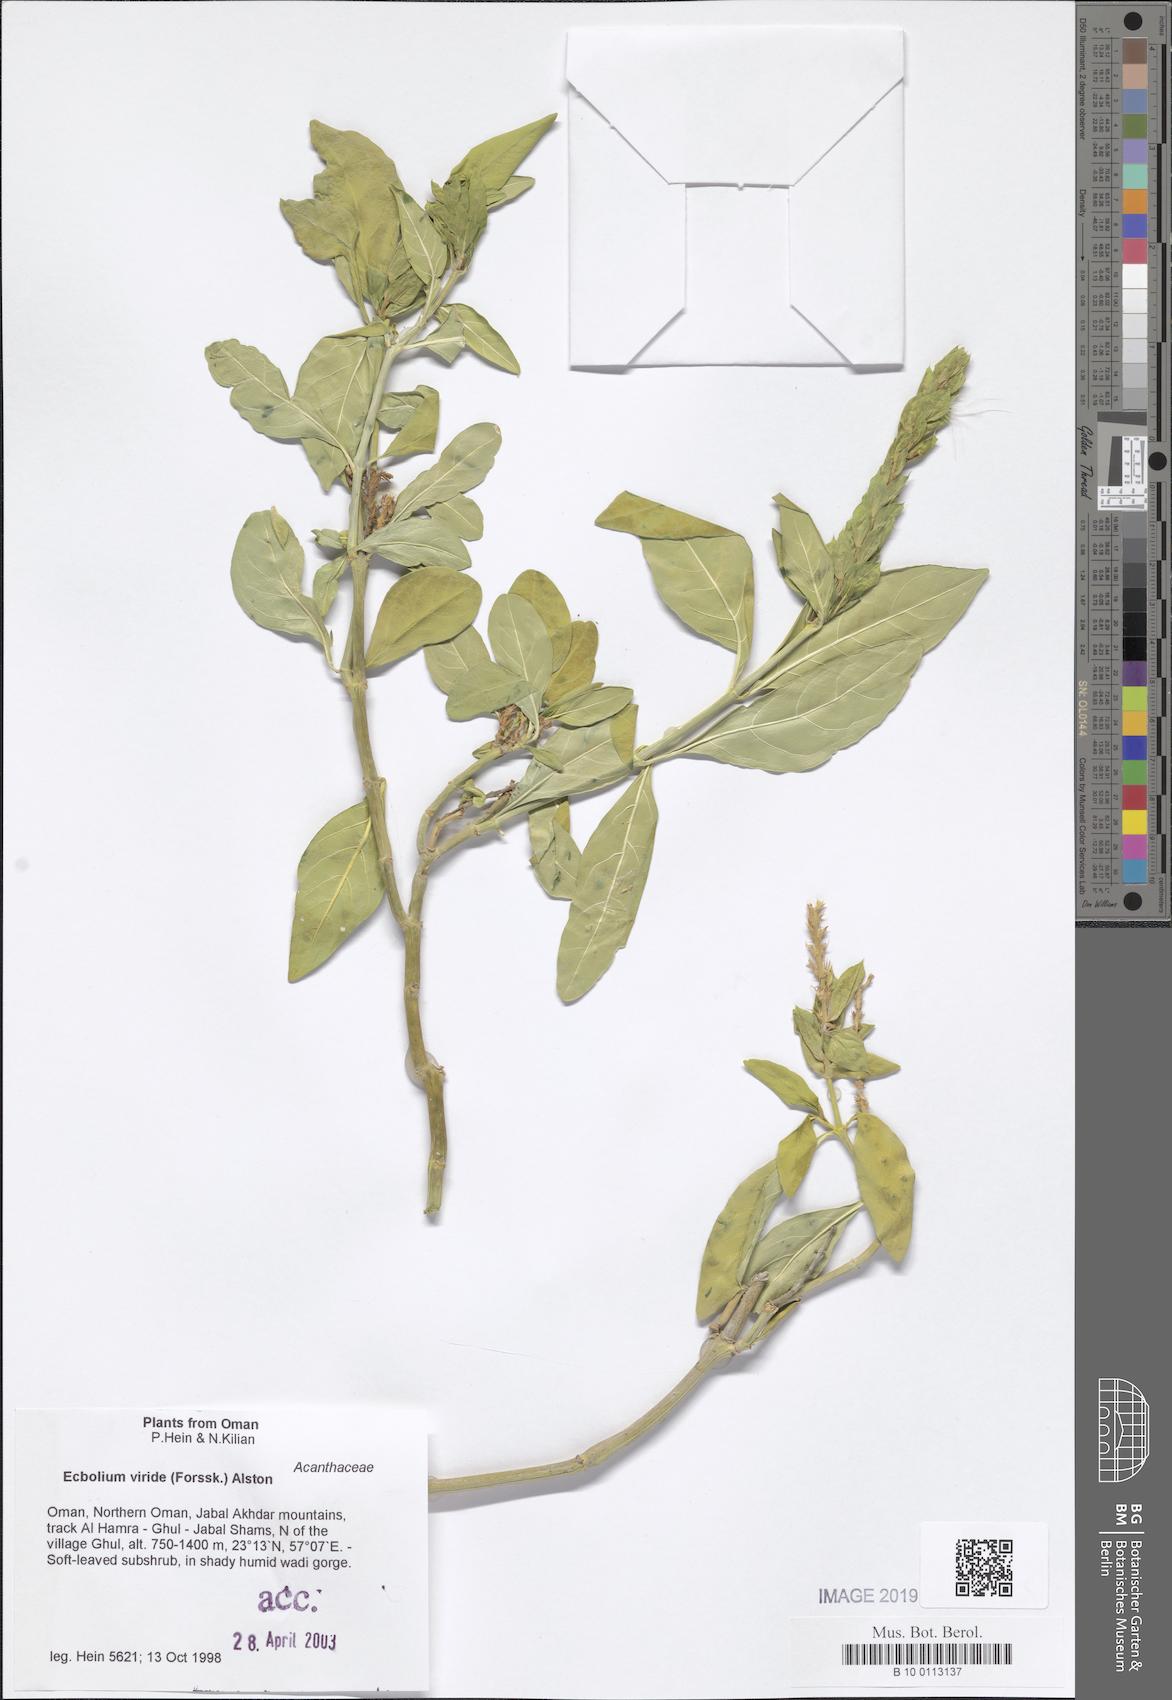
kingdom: Plantae
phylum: Tracheophyta
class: Magnoliopsida
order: Lamiales
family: Acanthaceae
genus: Ecbolium
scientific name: Ecbolium viride
